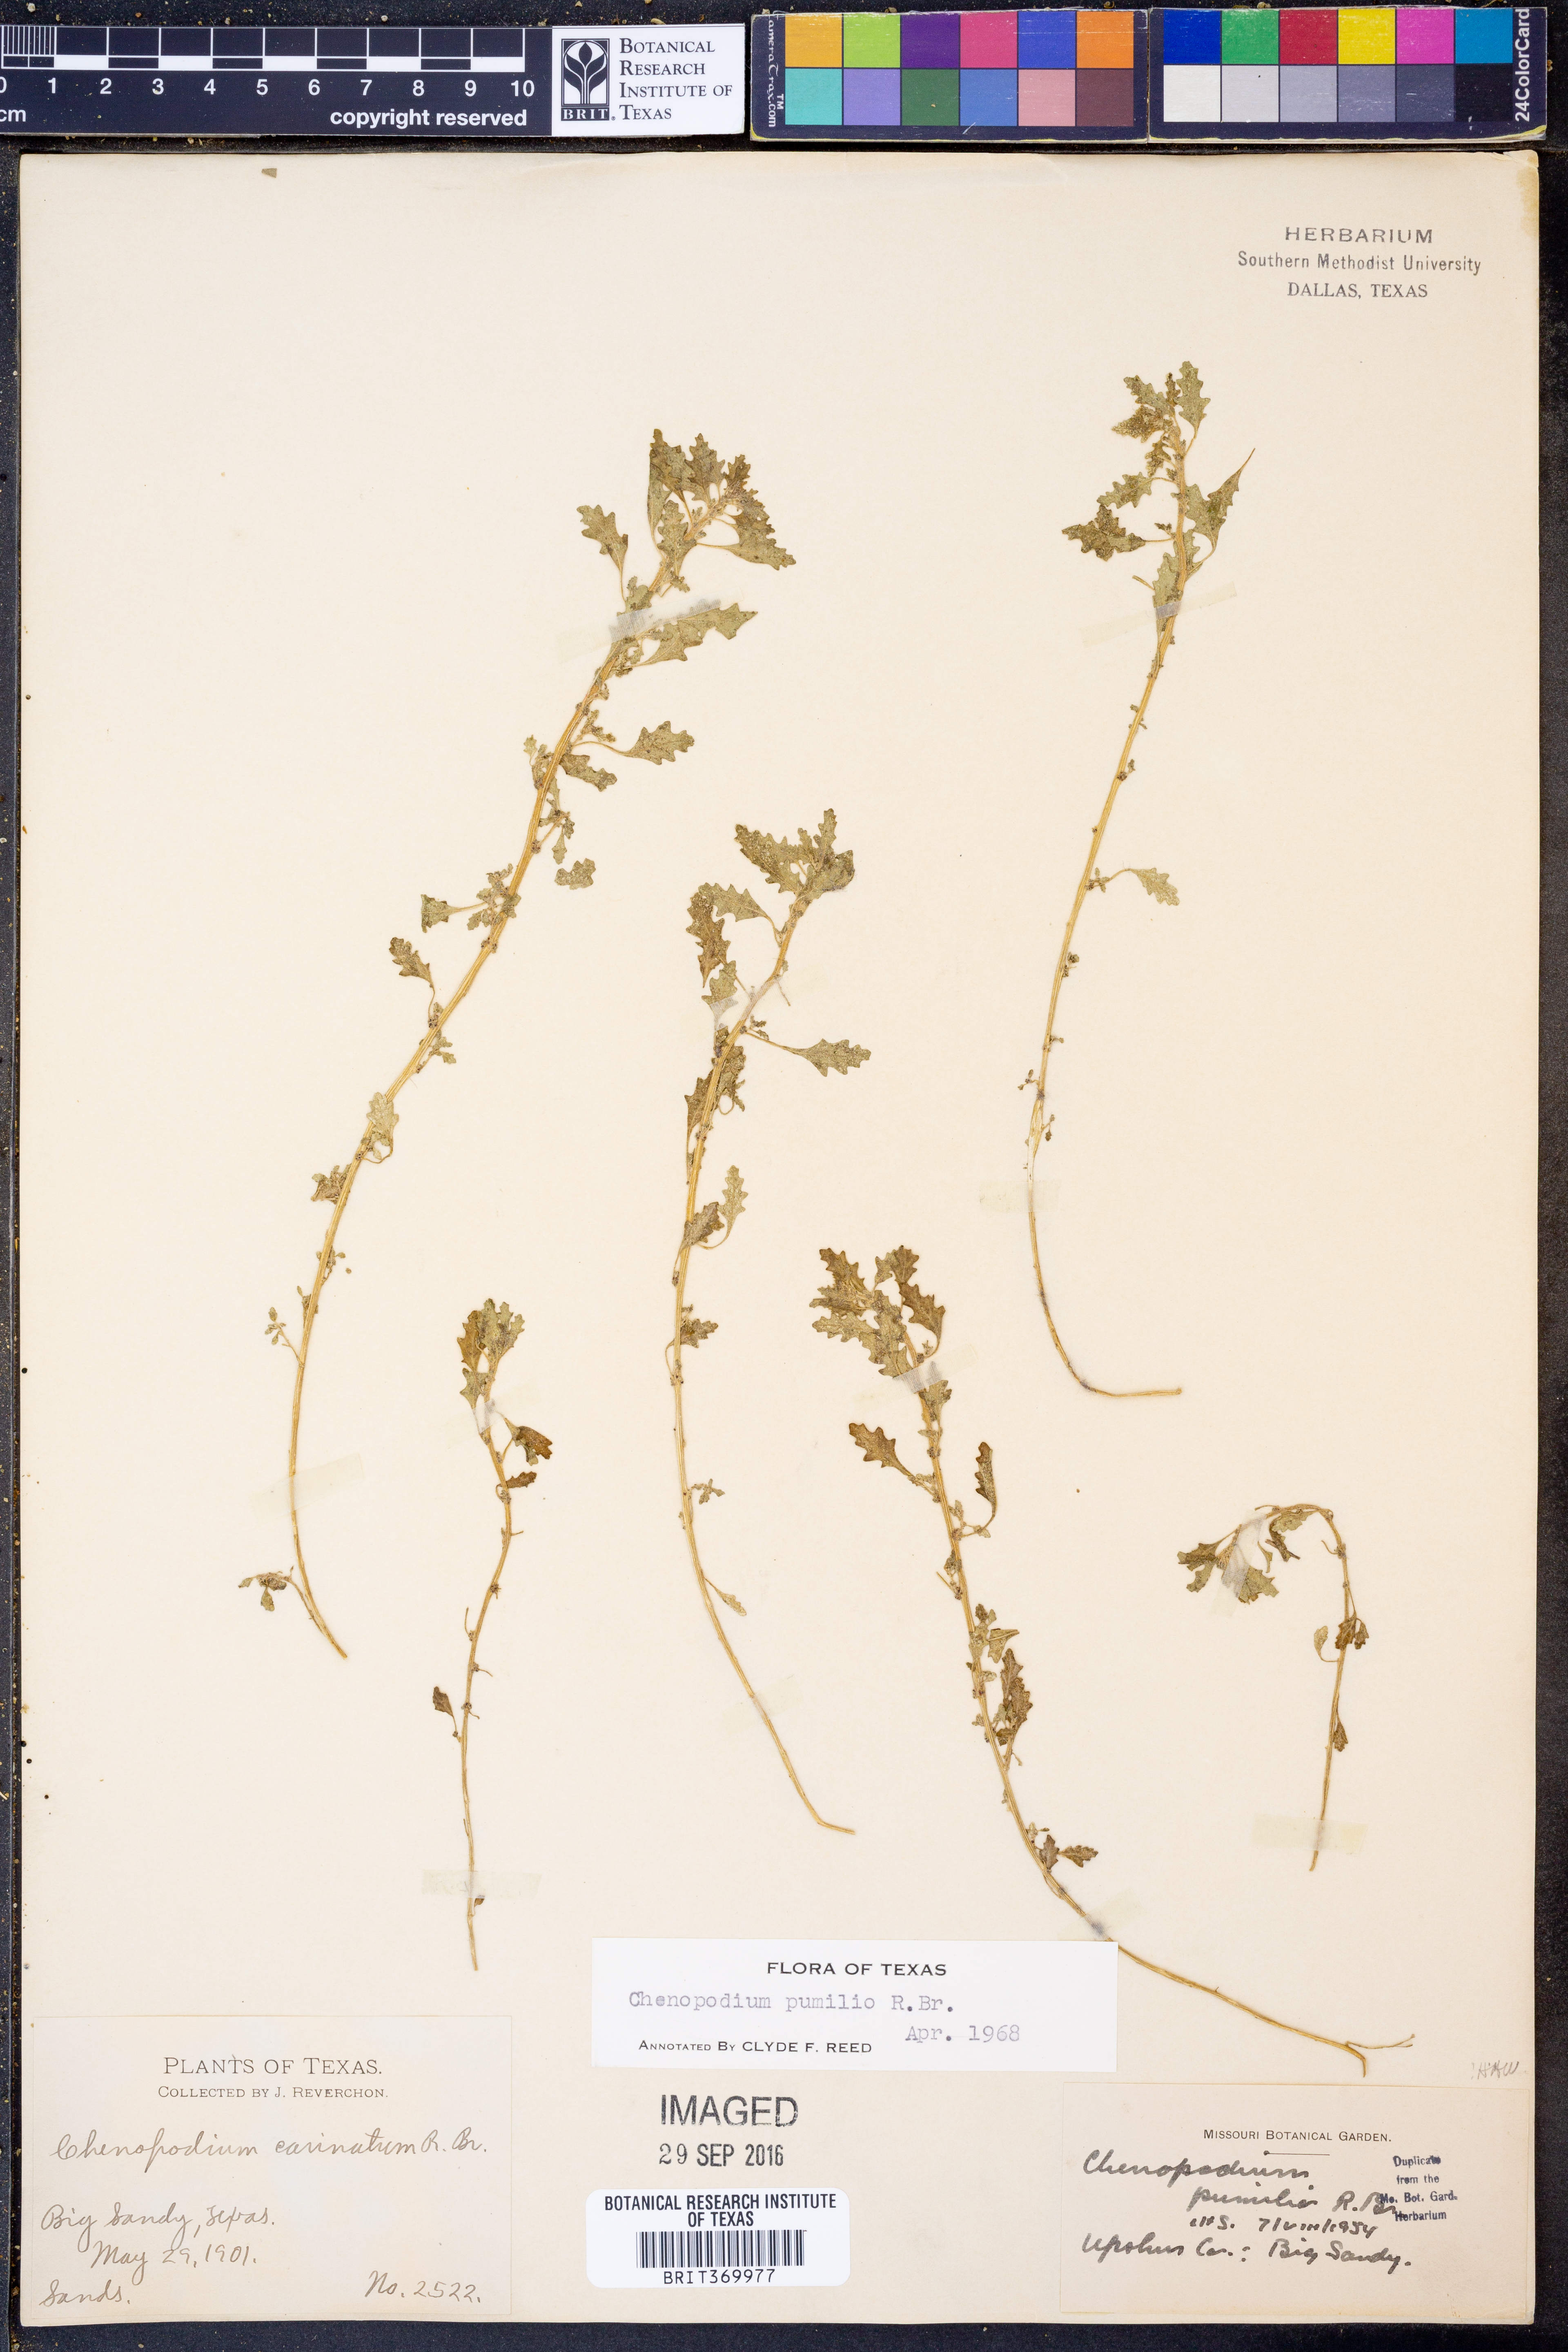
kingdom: Plantae
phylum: Tracheophyta
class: Magnoliopsida
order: Caryophyllales
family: Amaranthaceae
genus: Dysphania
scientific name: Dysphania pumilio
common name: Clammy goosefoot
